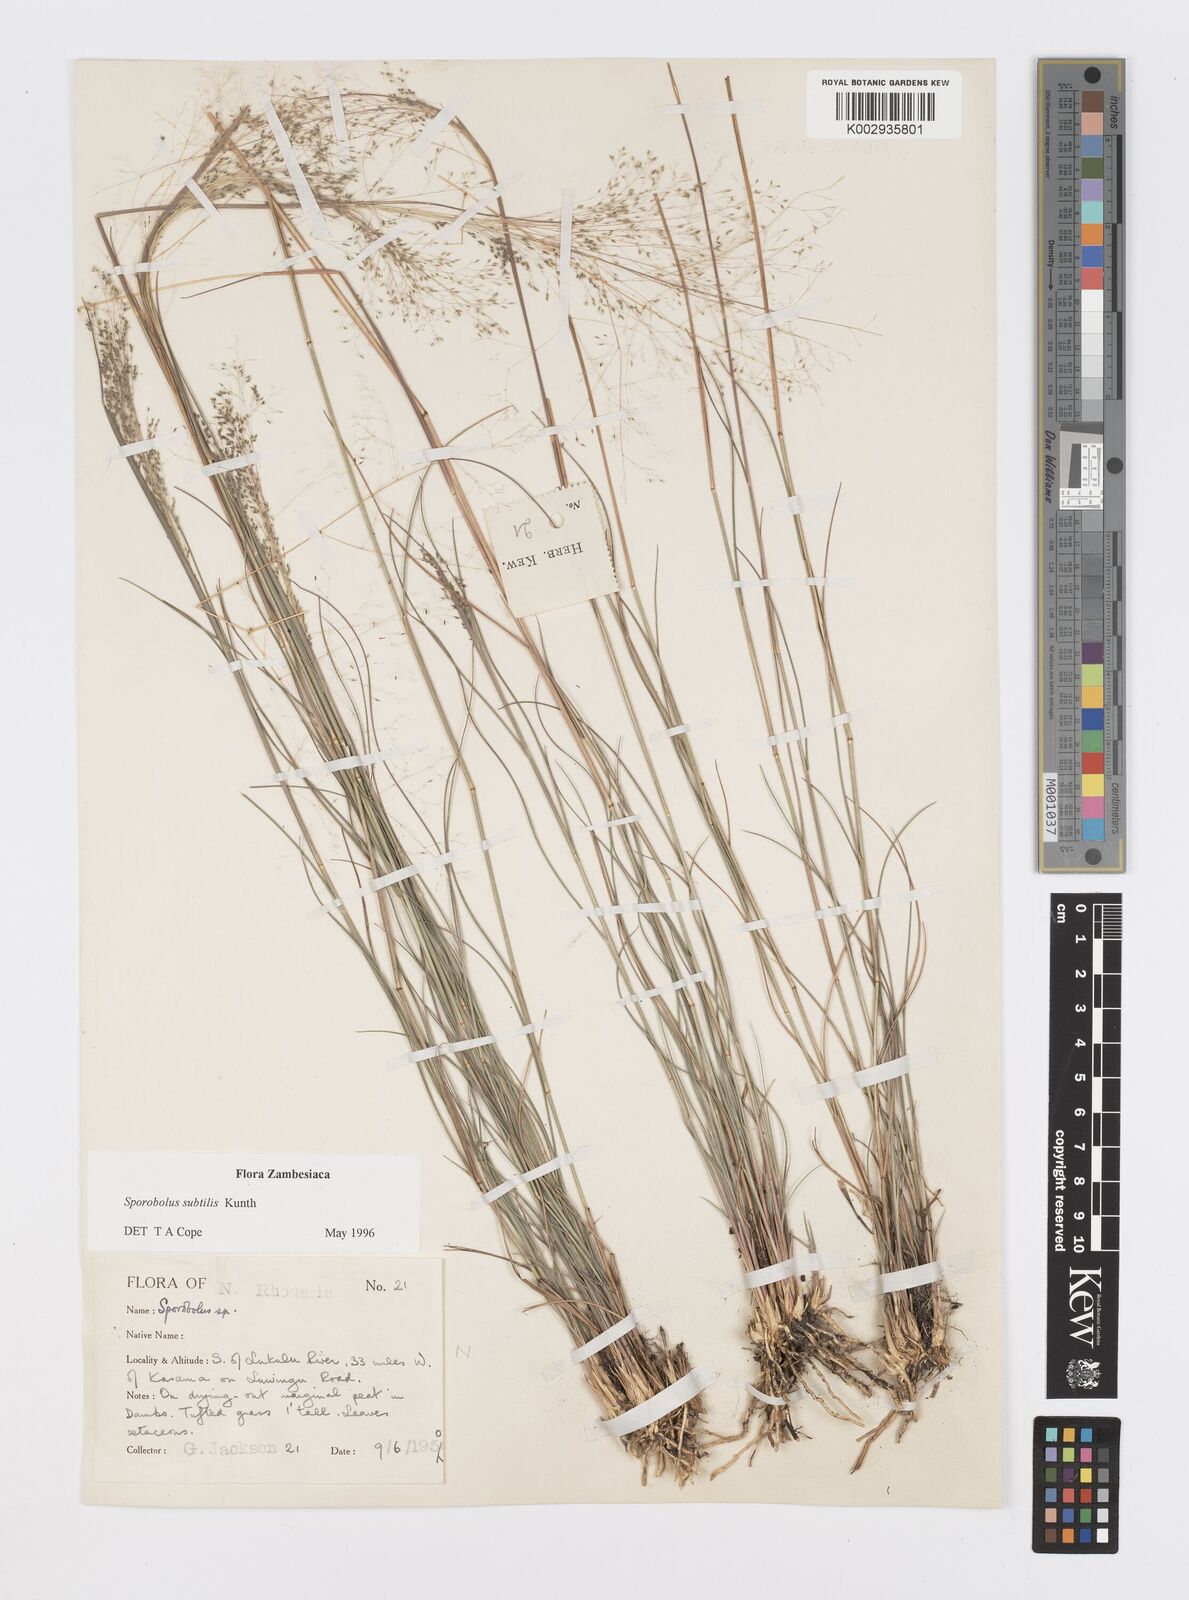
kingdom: Plantae
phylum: Tracheophyta
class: Liliopsida
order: Poales
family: Poaceae
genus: Sporobolus
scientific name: Sporobolus subtilis
